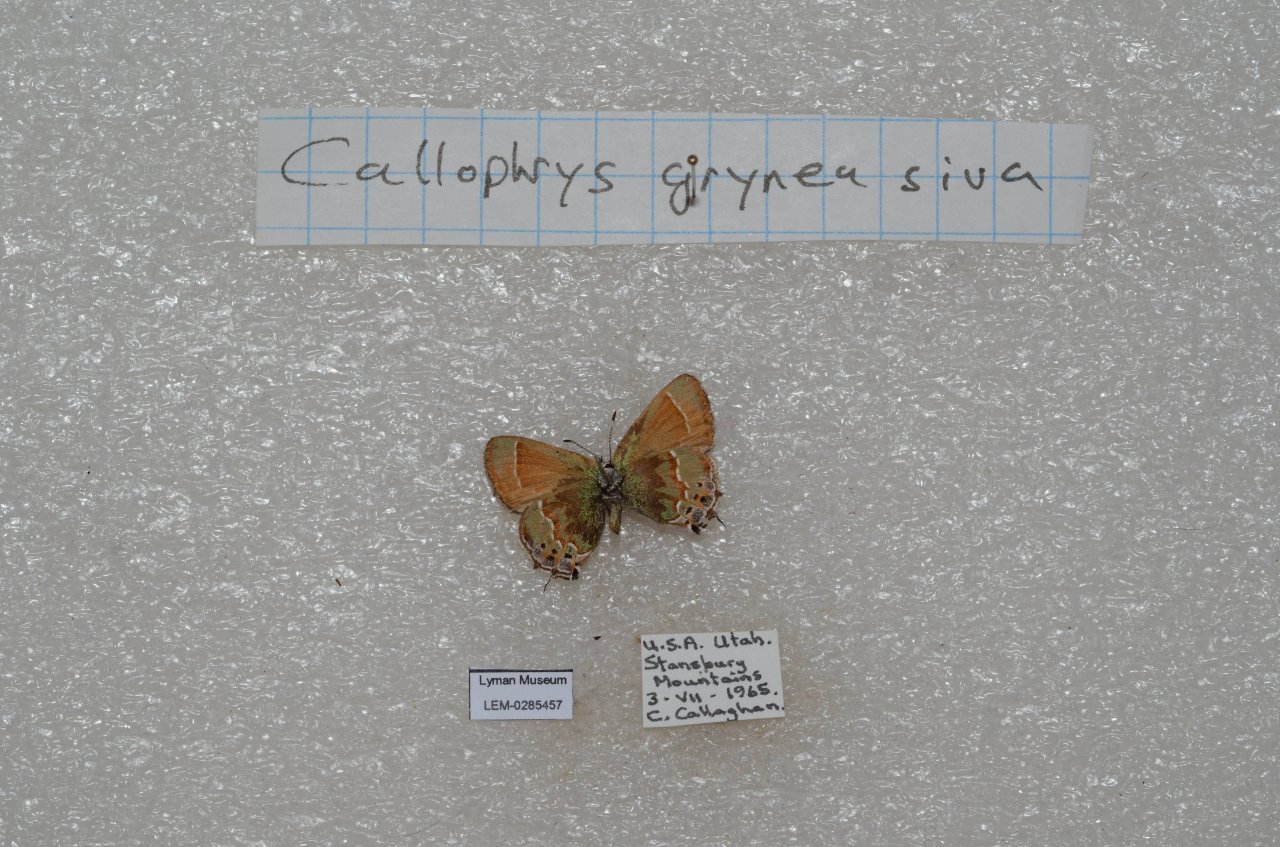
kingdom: Animalia
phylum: Arthropoda
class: Insecta
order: Lepidoptera
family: Lycaenidae
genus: Mitoura
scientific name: Mitoura gryneus
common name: Juniper Hairstreak
